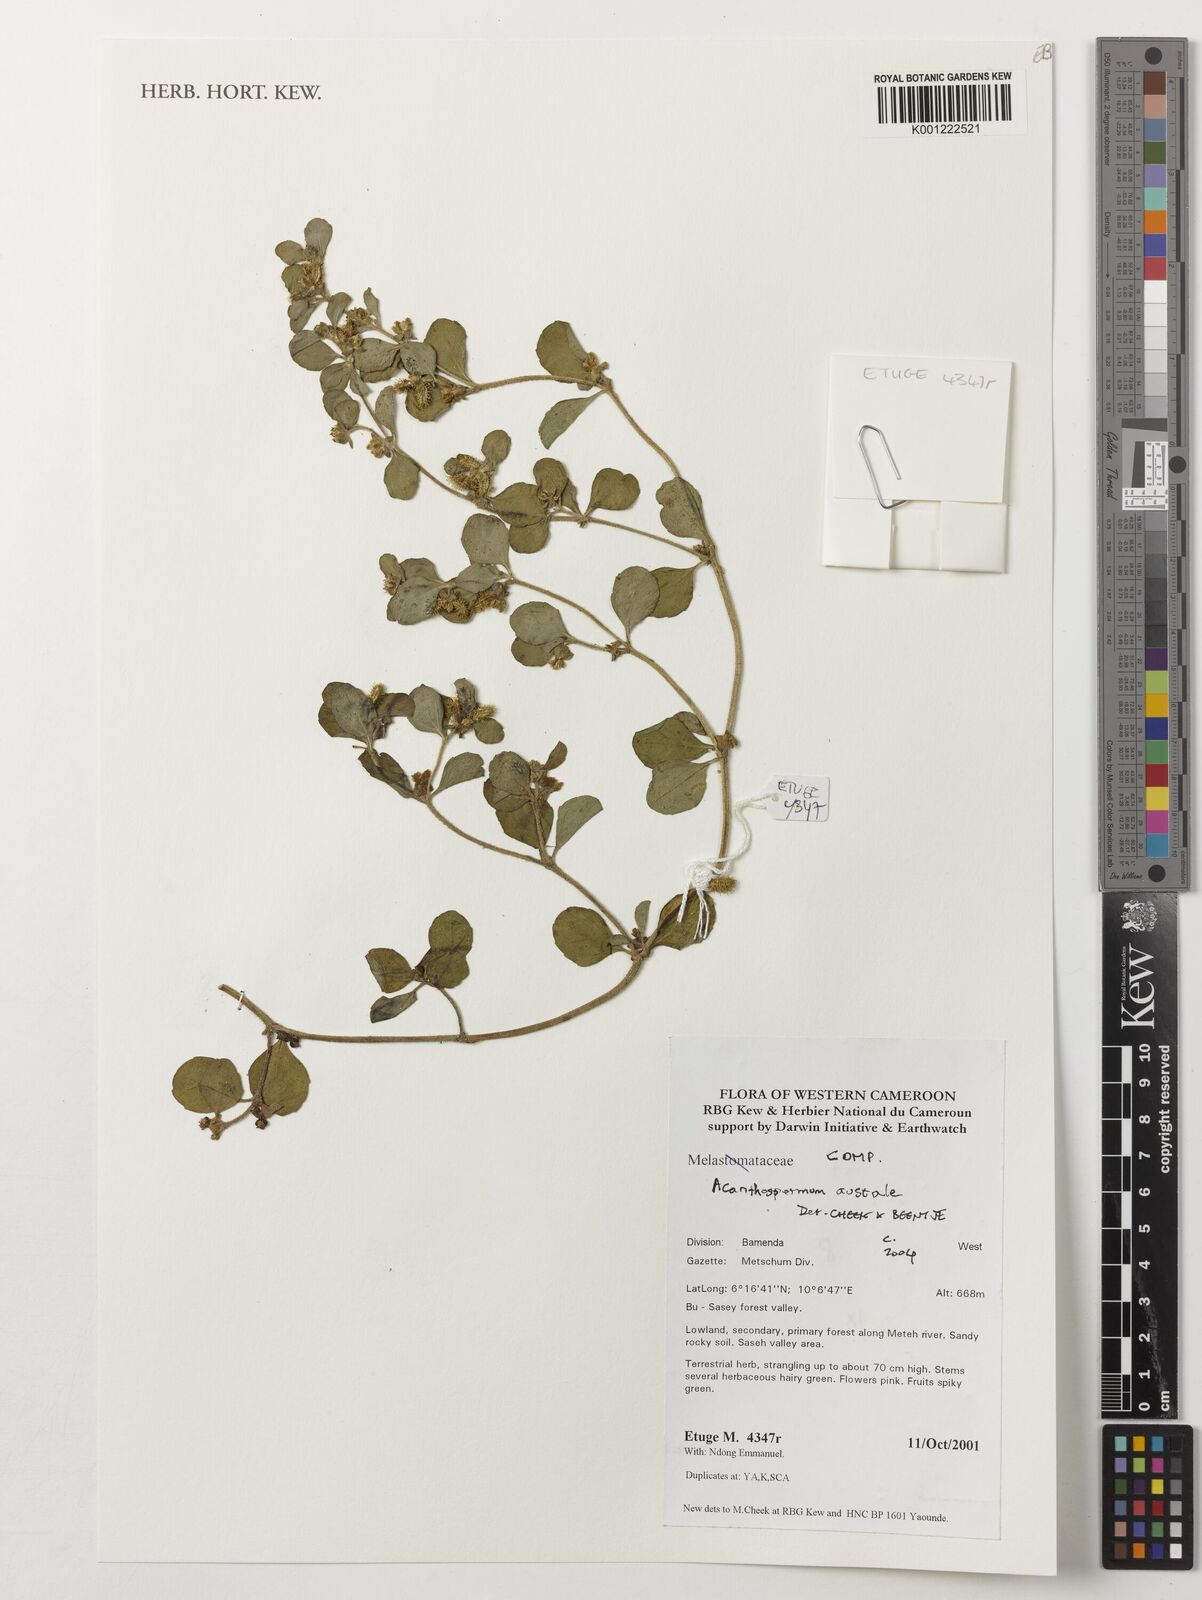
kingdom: Plantae
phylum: Tracheophyta
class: Magnoliopsida
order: Asterales
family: Asteraceae
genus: Acanthospermum
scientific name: Acanthospermum australe
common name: Paraguayan starbur
